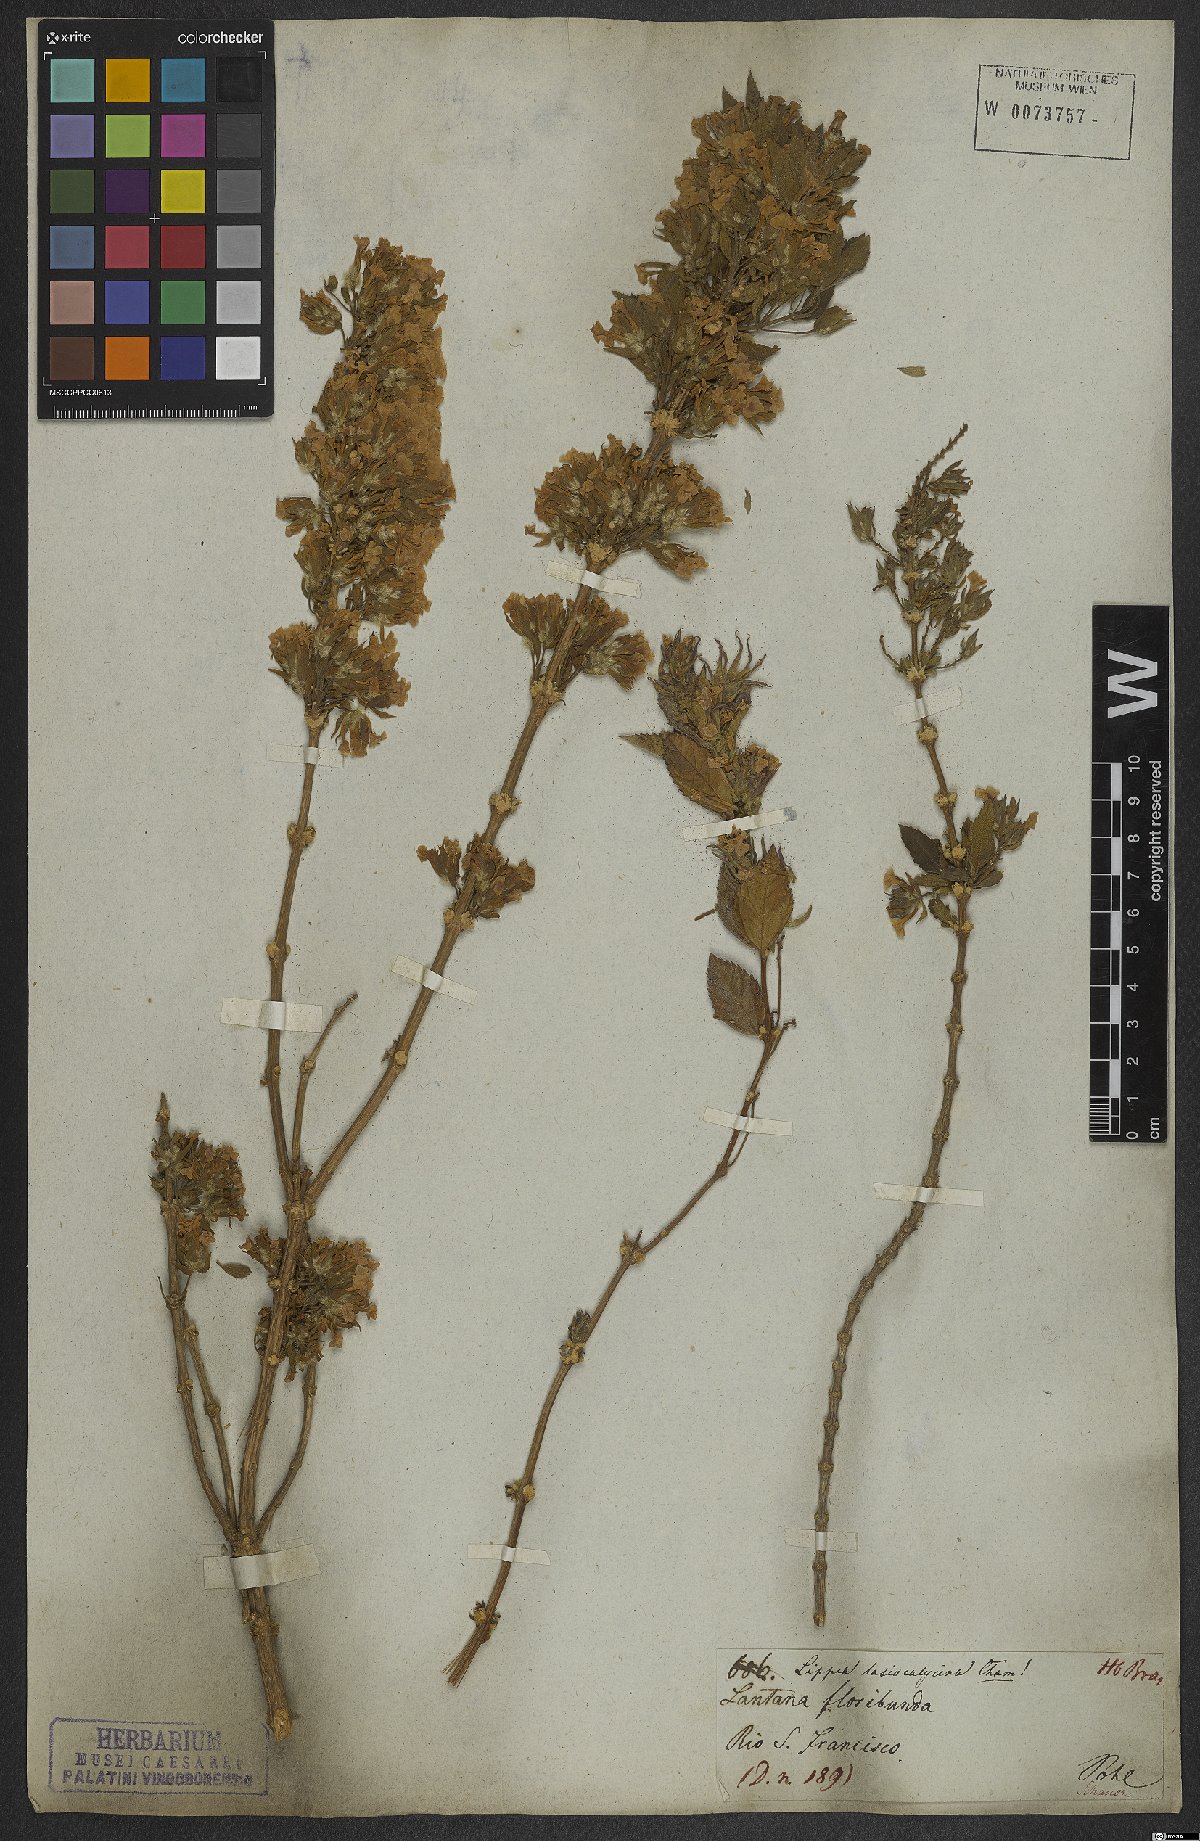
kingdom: Plantae
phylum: Tracheophyta
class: Magnoliopsida
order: Lamiales
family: Verbenaceae
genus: Lippia
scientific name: Lippia lasiocalycina
